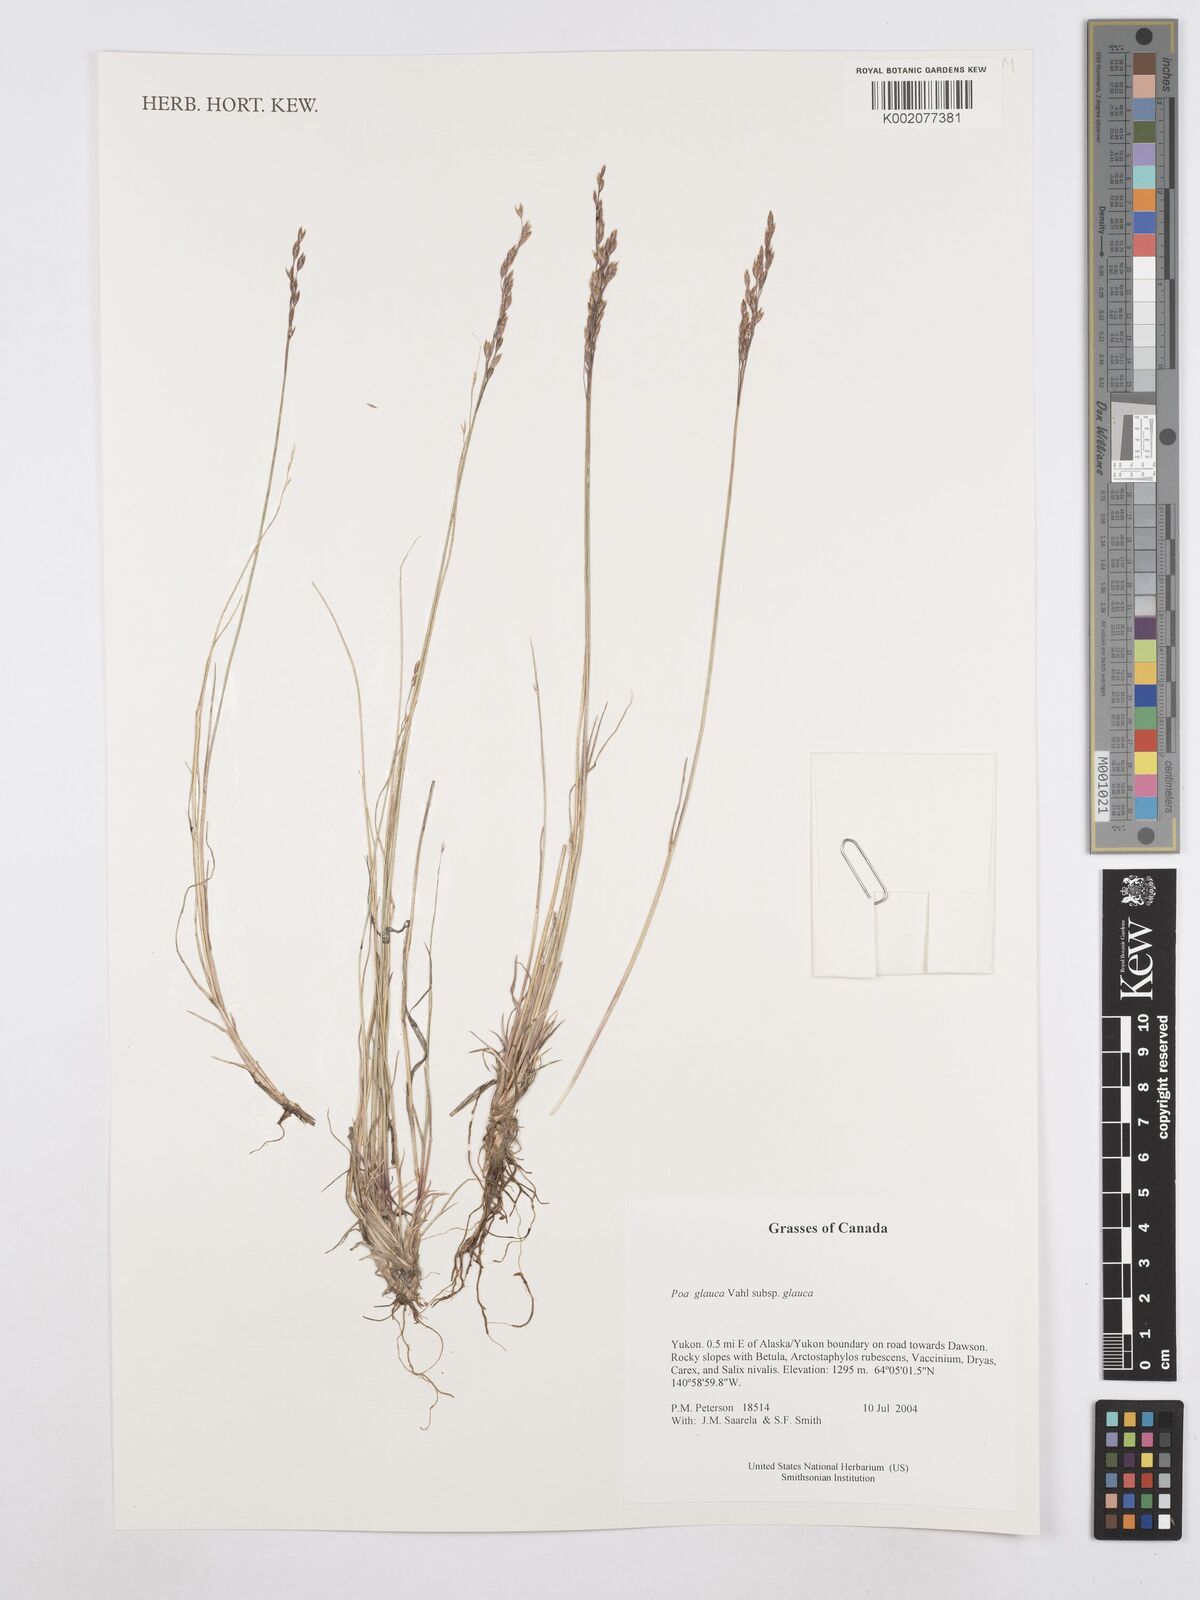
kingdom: Plantae
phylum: Tracheophyta
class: Liliopsida
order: Poales
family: Poaceae
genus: Poa
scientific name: Poa glauca
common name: Glaucous bluegrass
